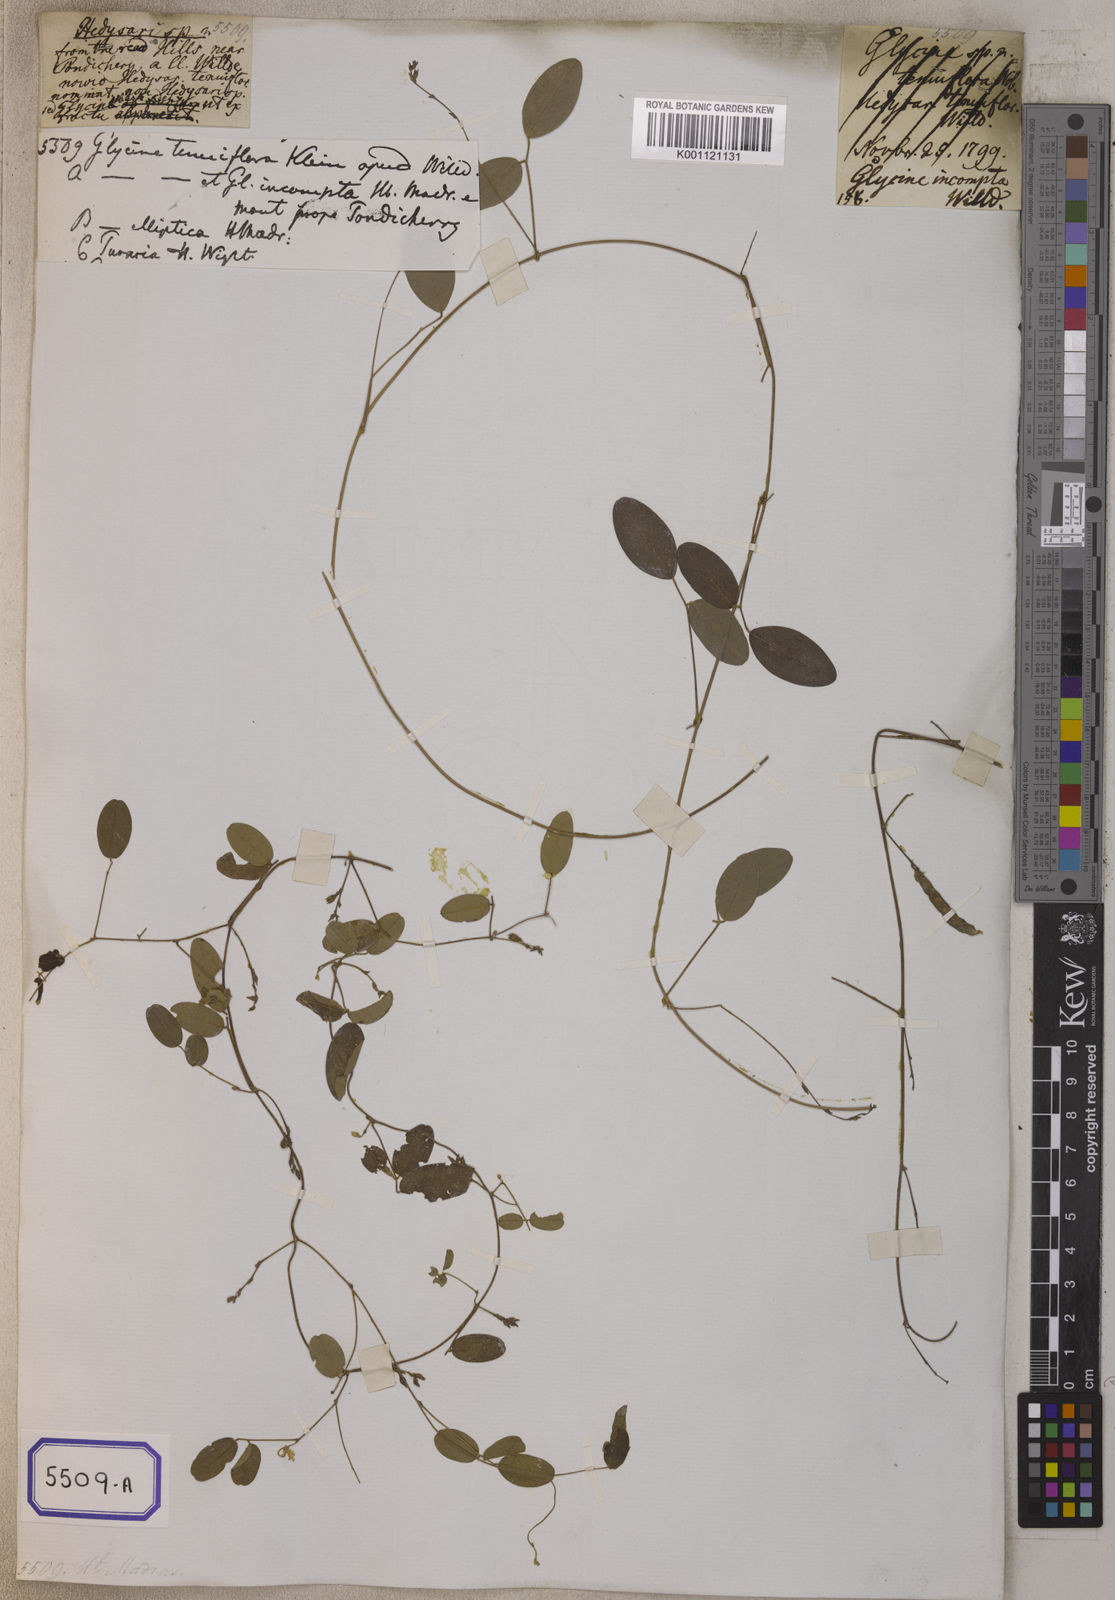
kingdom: Plantae
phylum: Tracheophyta
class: Magnoliopsida
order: Fabales
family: Fabaceae
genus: Galactia
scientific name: Galactia striata
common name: Florida hammock milkpea
